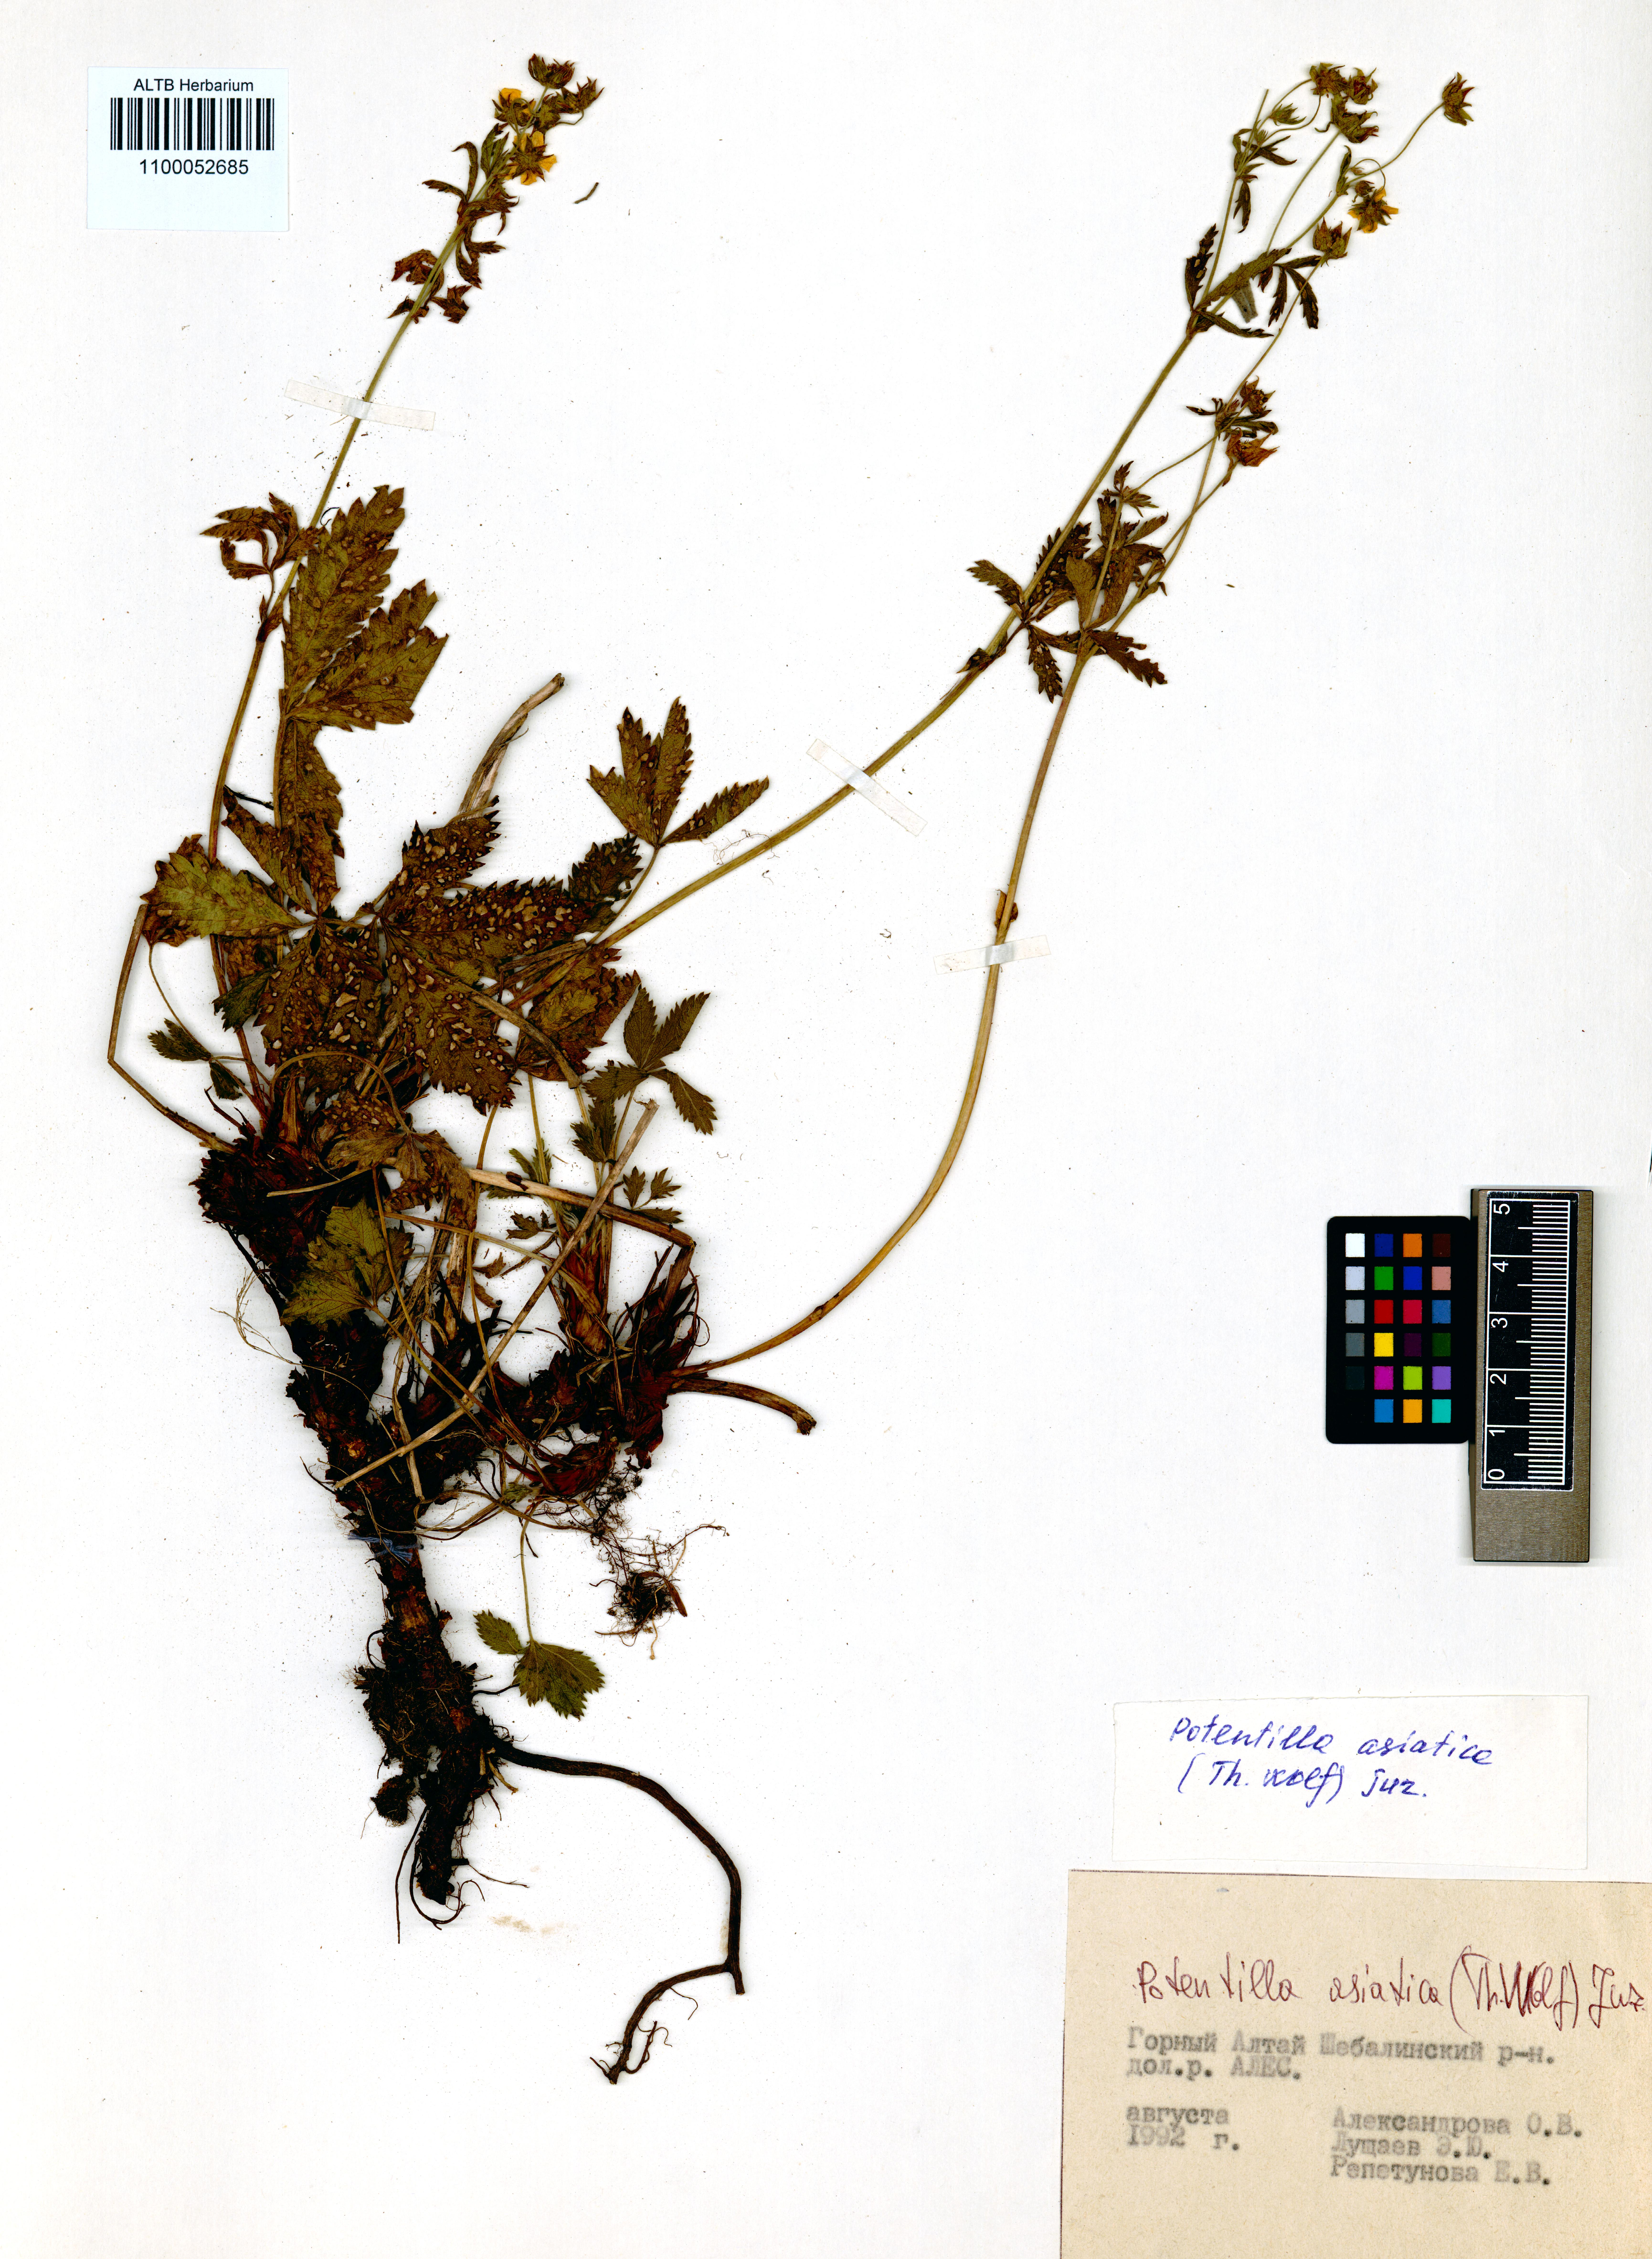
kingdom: Plantae
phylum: Tracheophyta
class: Magnoliopsida
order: Rosales
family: Rosaceae
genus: Potentilla
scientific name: Potentilla asiatica
